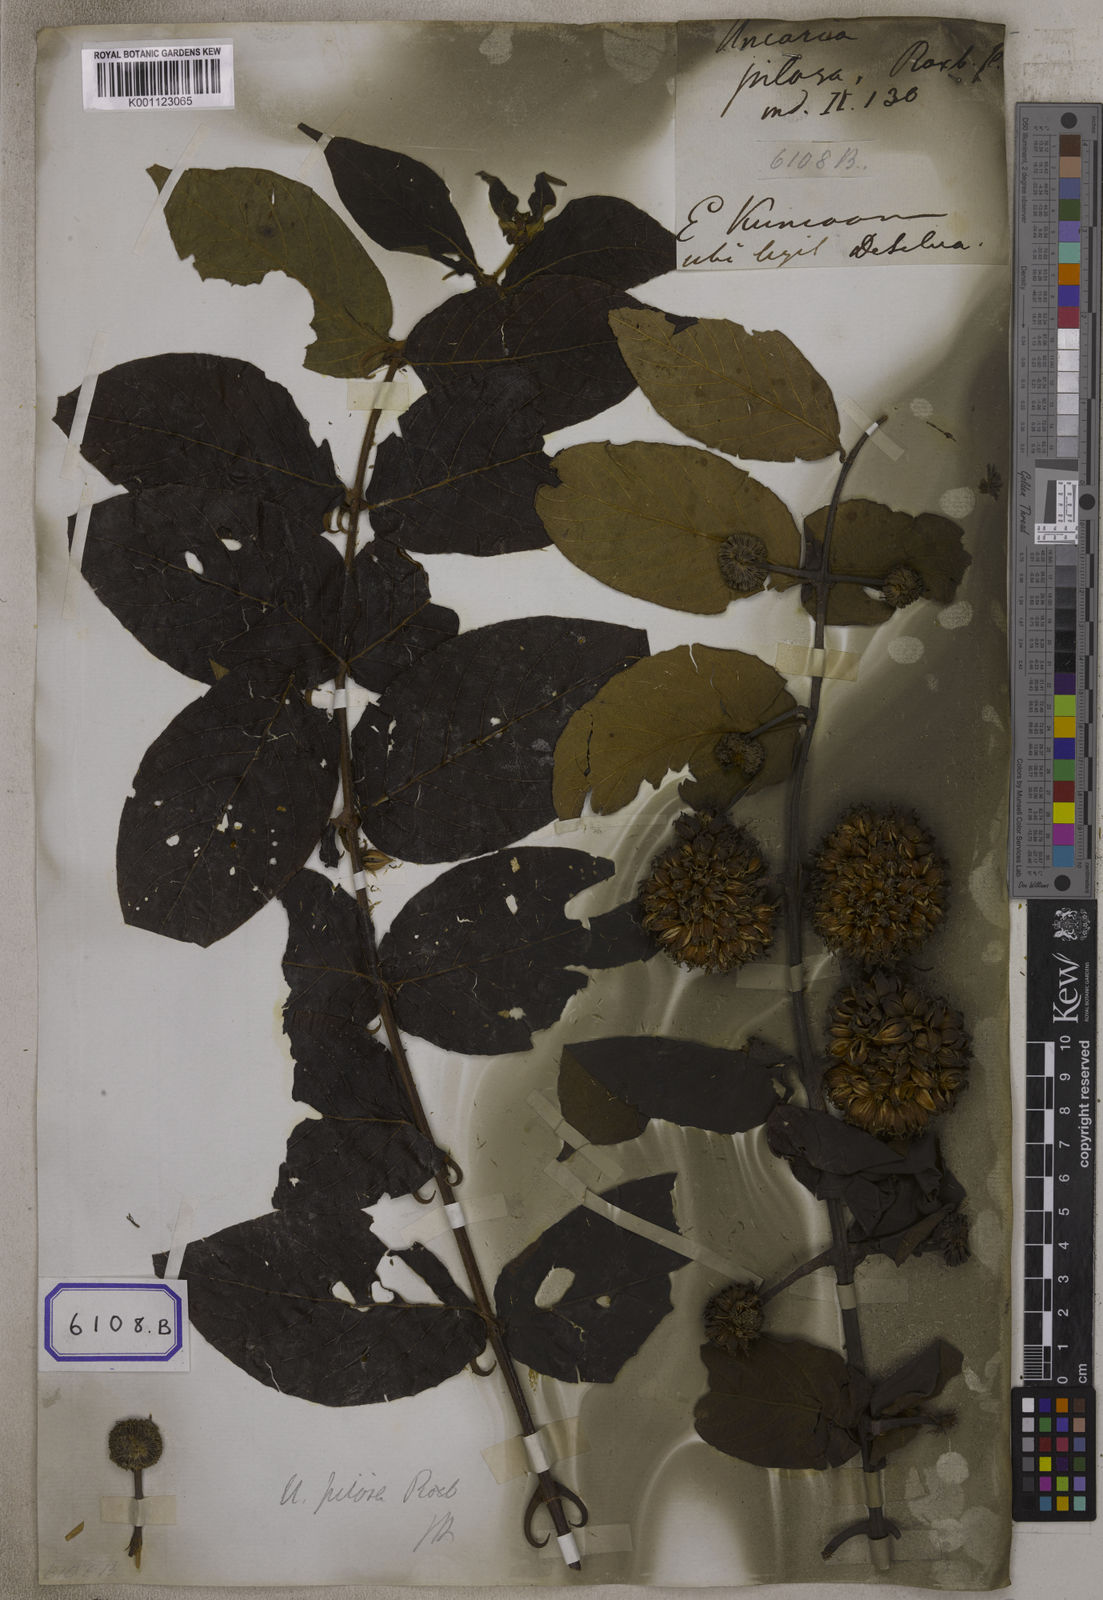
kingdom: Plantae
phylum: Tracheophyta
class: Magnoliopsida
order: Gentianales
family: Rubiaceae
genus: Uncaria
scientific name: Uncaria
